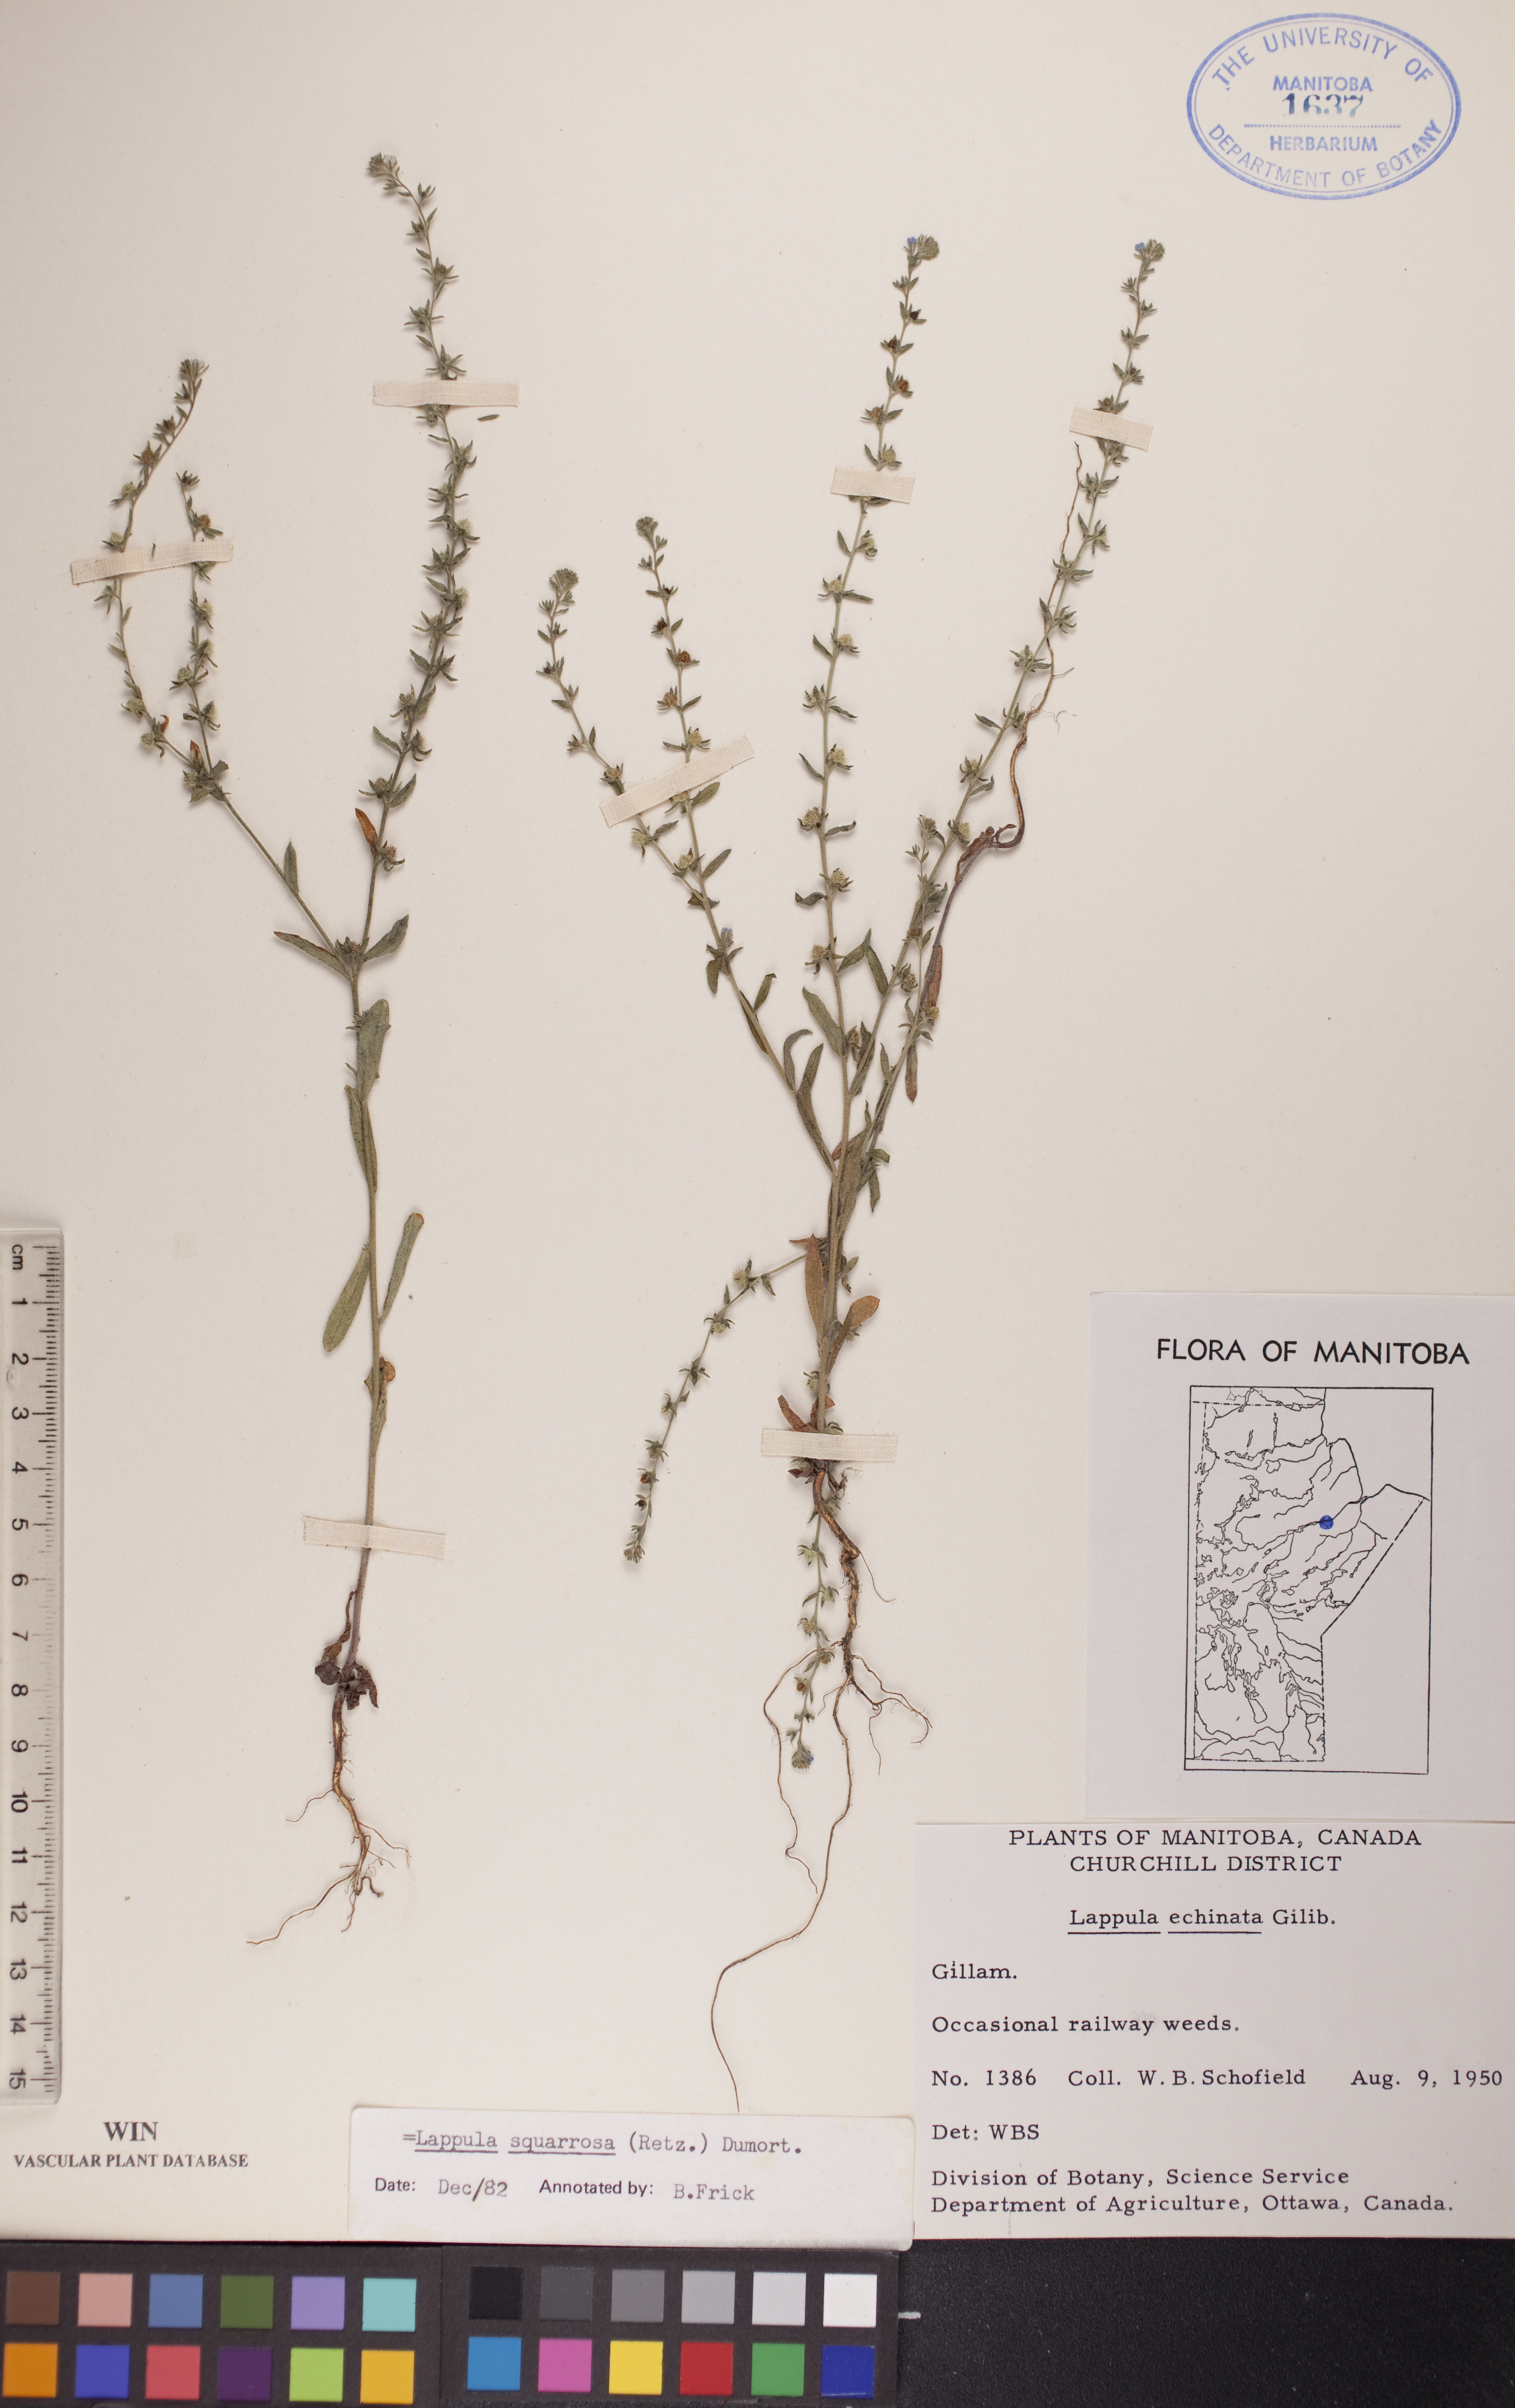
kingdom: Plantae
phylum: Tracheophyta
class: Magnoliopsida
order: Boraginales
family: Boraginaceae
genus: Lappula
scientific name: Lappula squarrosa
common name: European stickseed
